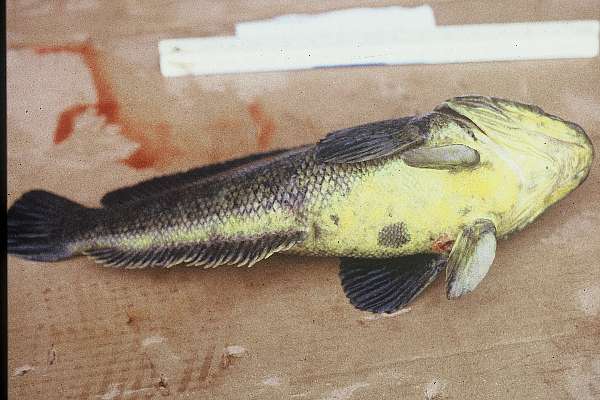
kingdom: Animalia
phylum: Chordata
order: Perciformes
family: Nototheniidae
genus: Notothenia
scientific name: Notothenia coriiceps
